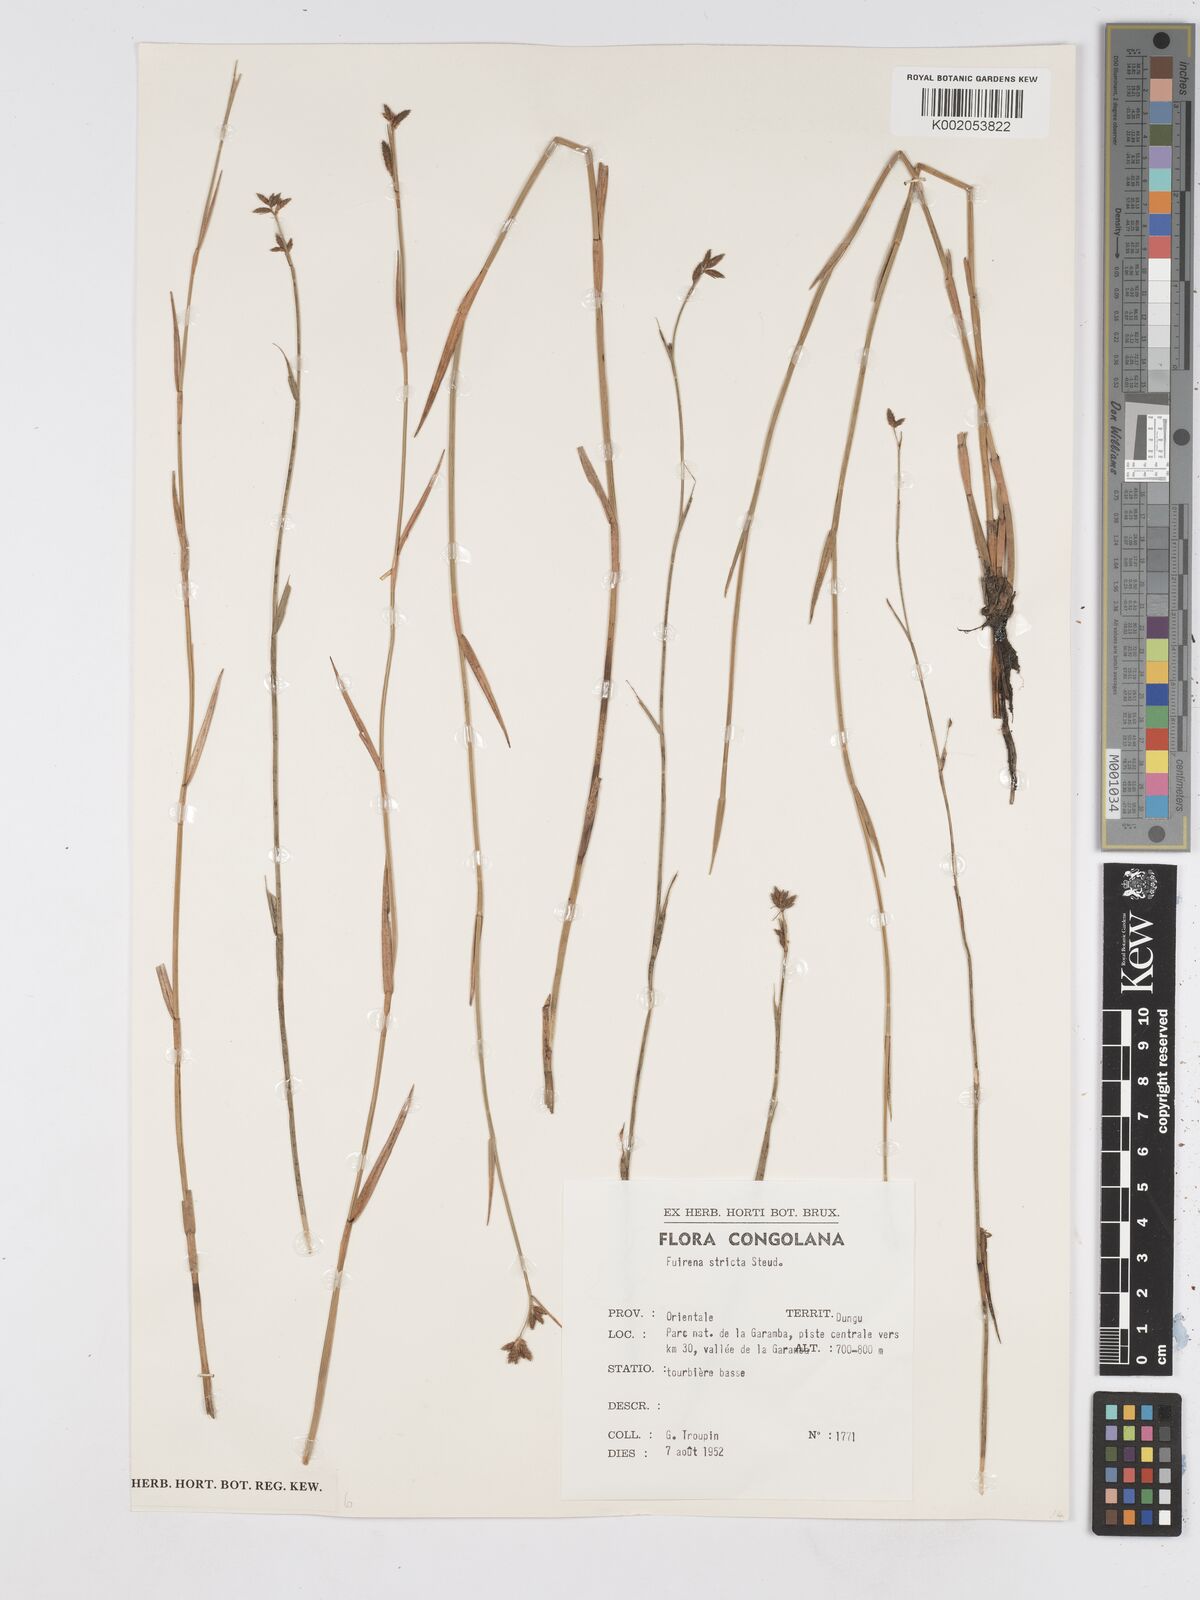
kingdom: Plantae
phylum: Tracheophyta
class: Liliopsida
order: Poales
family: Cyperaceae
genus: Fuirena
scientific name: Fuirena stricta
